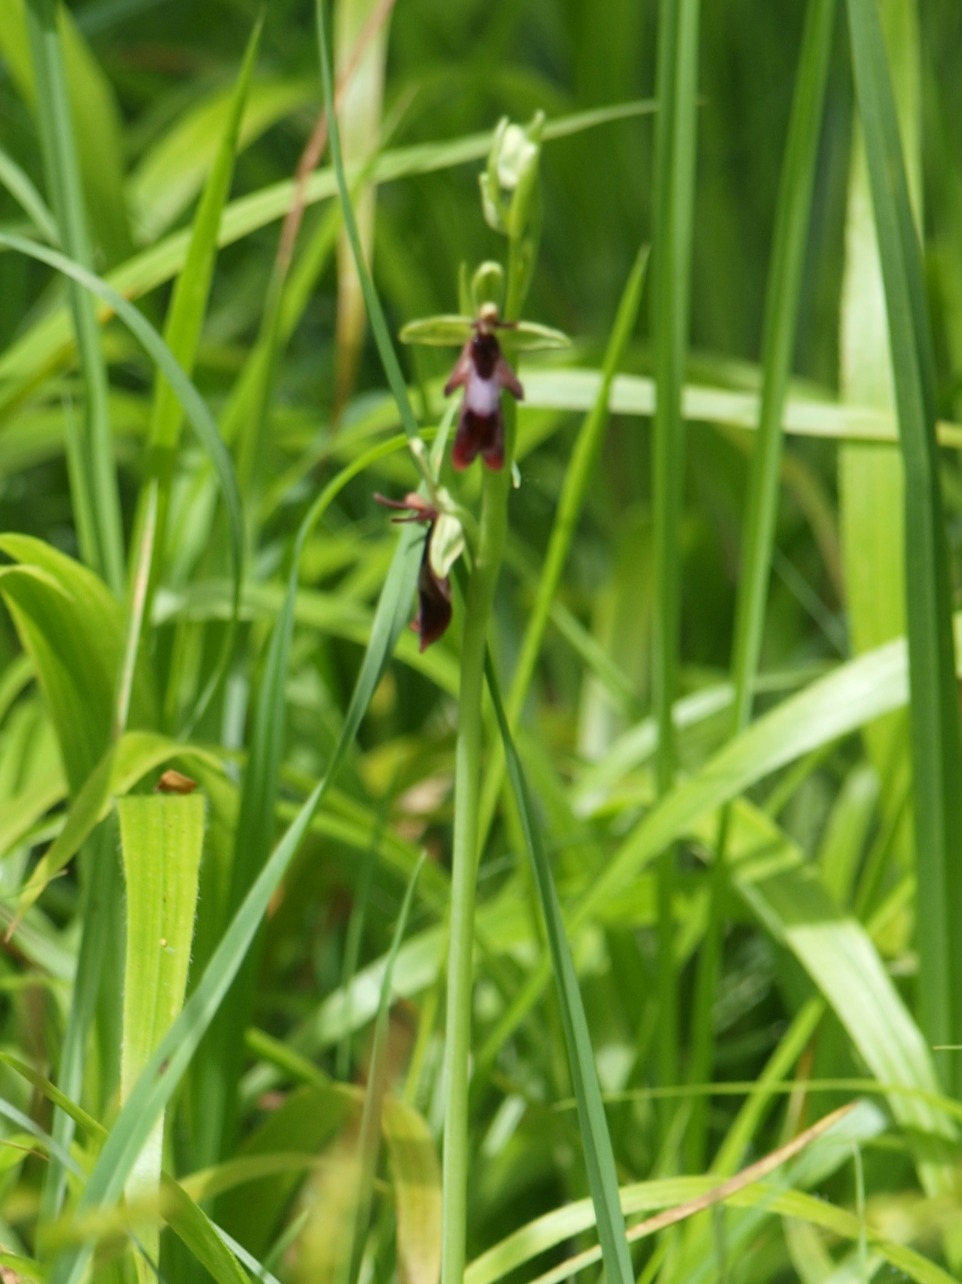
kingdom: Plantae
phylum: Tracheophyta
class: Liliopsida
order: Asparagales
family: Orchidaceae
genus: Ophrys
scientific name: Ophrys insectifera
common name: Flueblomst
